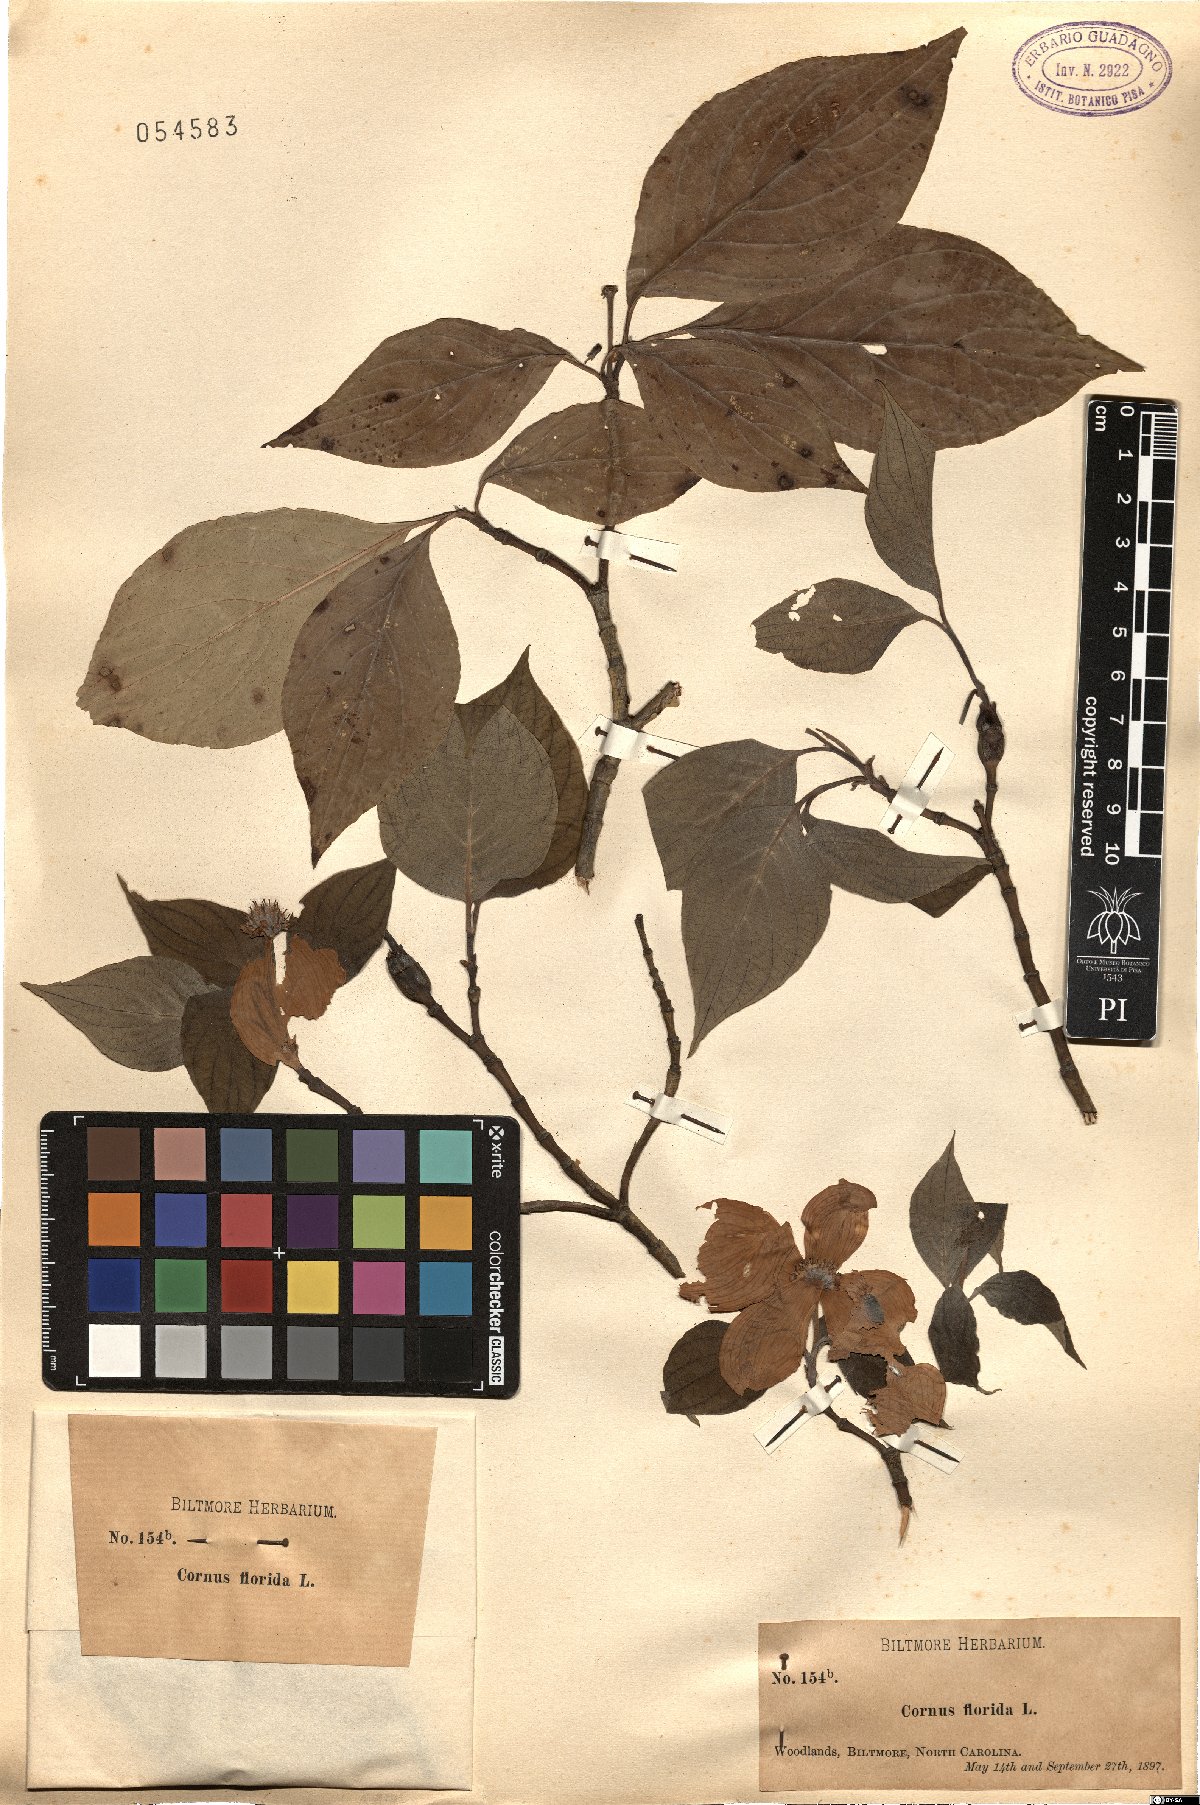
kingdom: Plantae
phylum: Tracheophyta
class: Magnoliopsida
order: Cornales
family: Cornaceae
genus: Cornus
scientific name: Cornus florida
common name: Flowering dogwood
